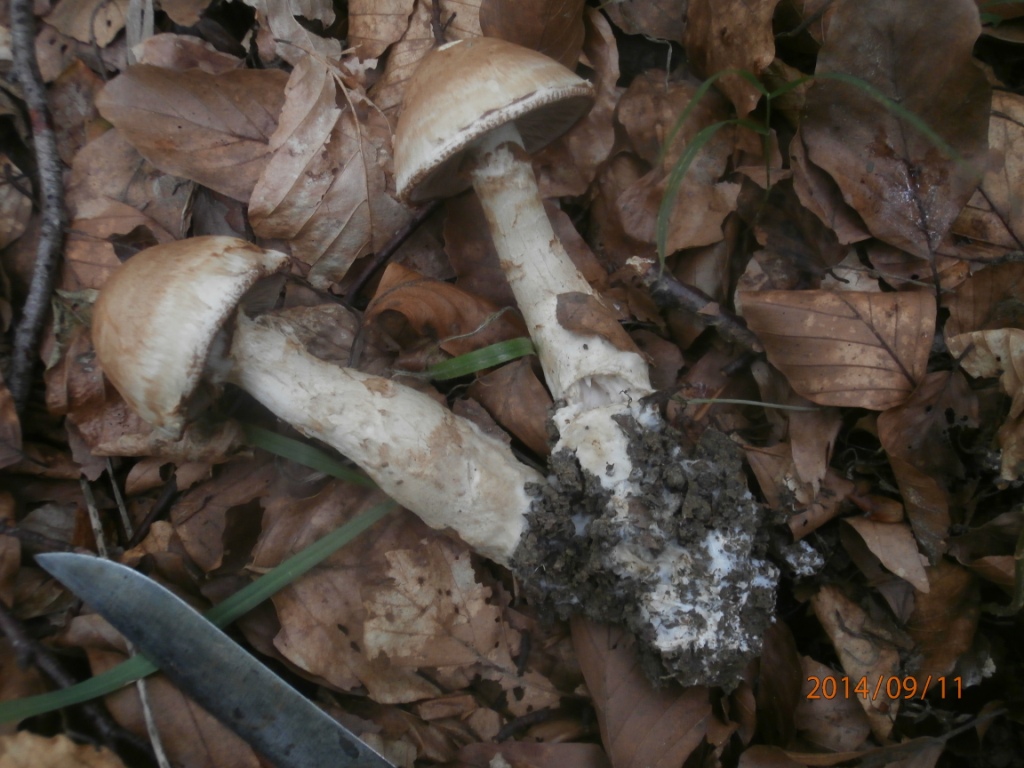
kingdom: Fungi
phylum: Basidiomycota
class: Agaricomycetes
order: Agaricales
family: Hymenogastraceae
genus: Hebeloma
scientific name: Hebeloma radicosum
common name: pælerods-tåreblad
